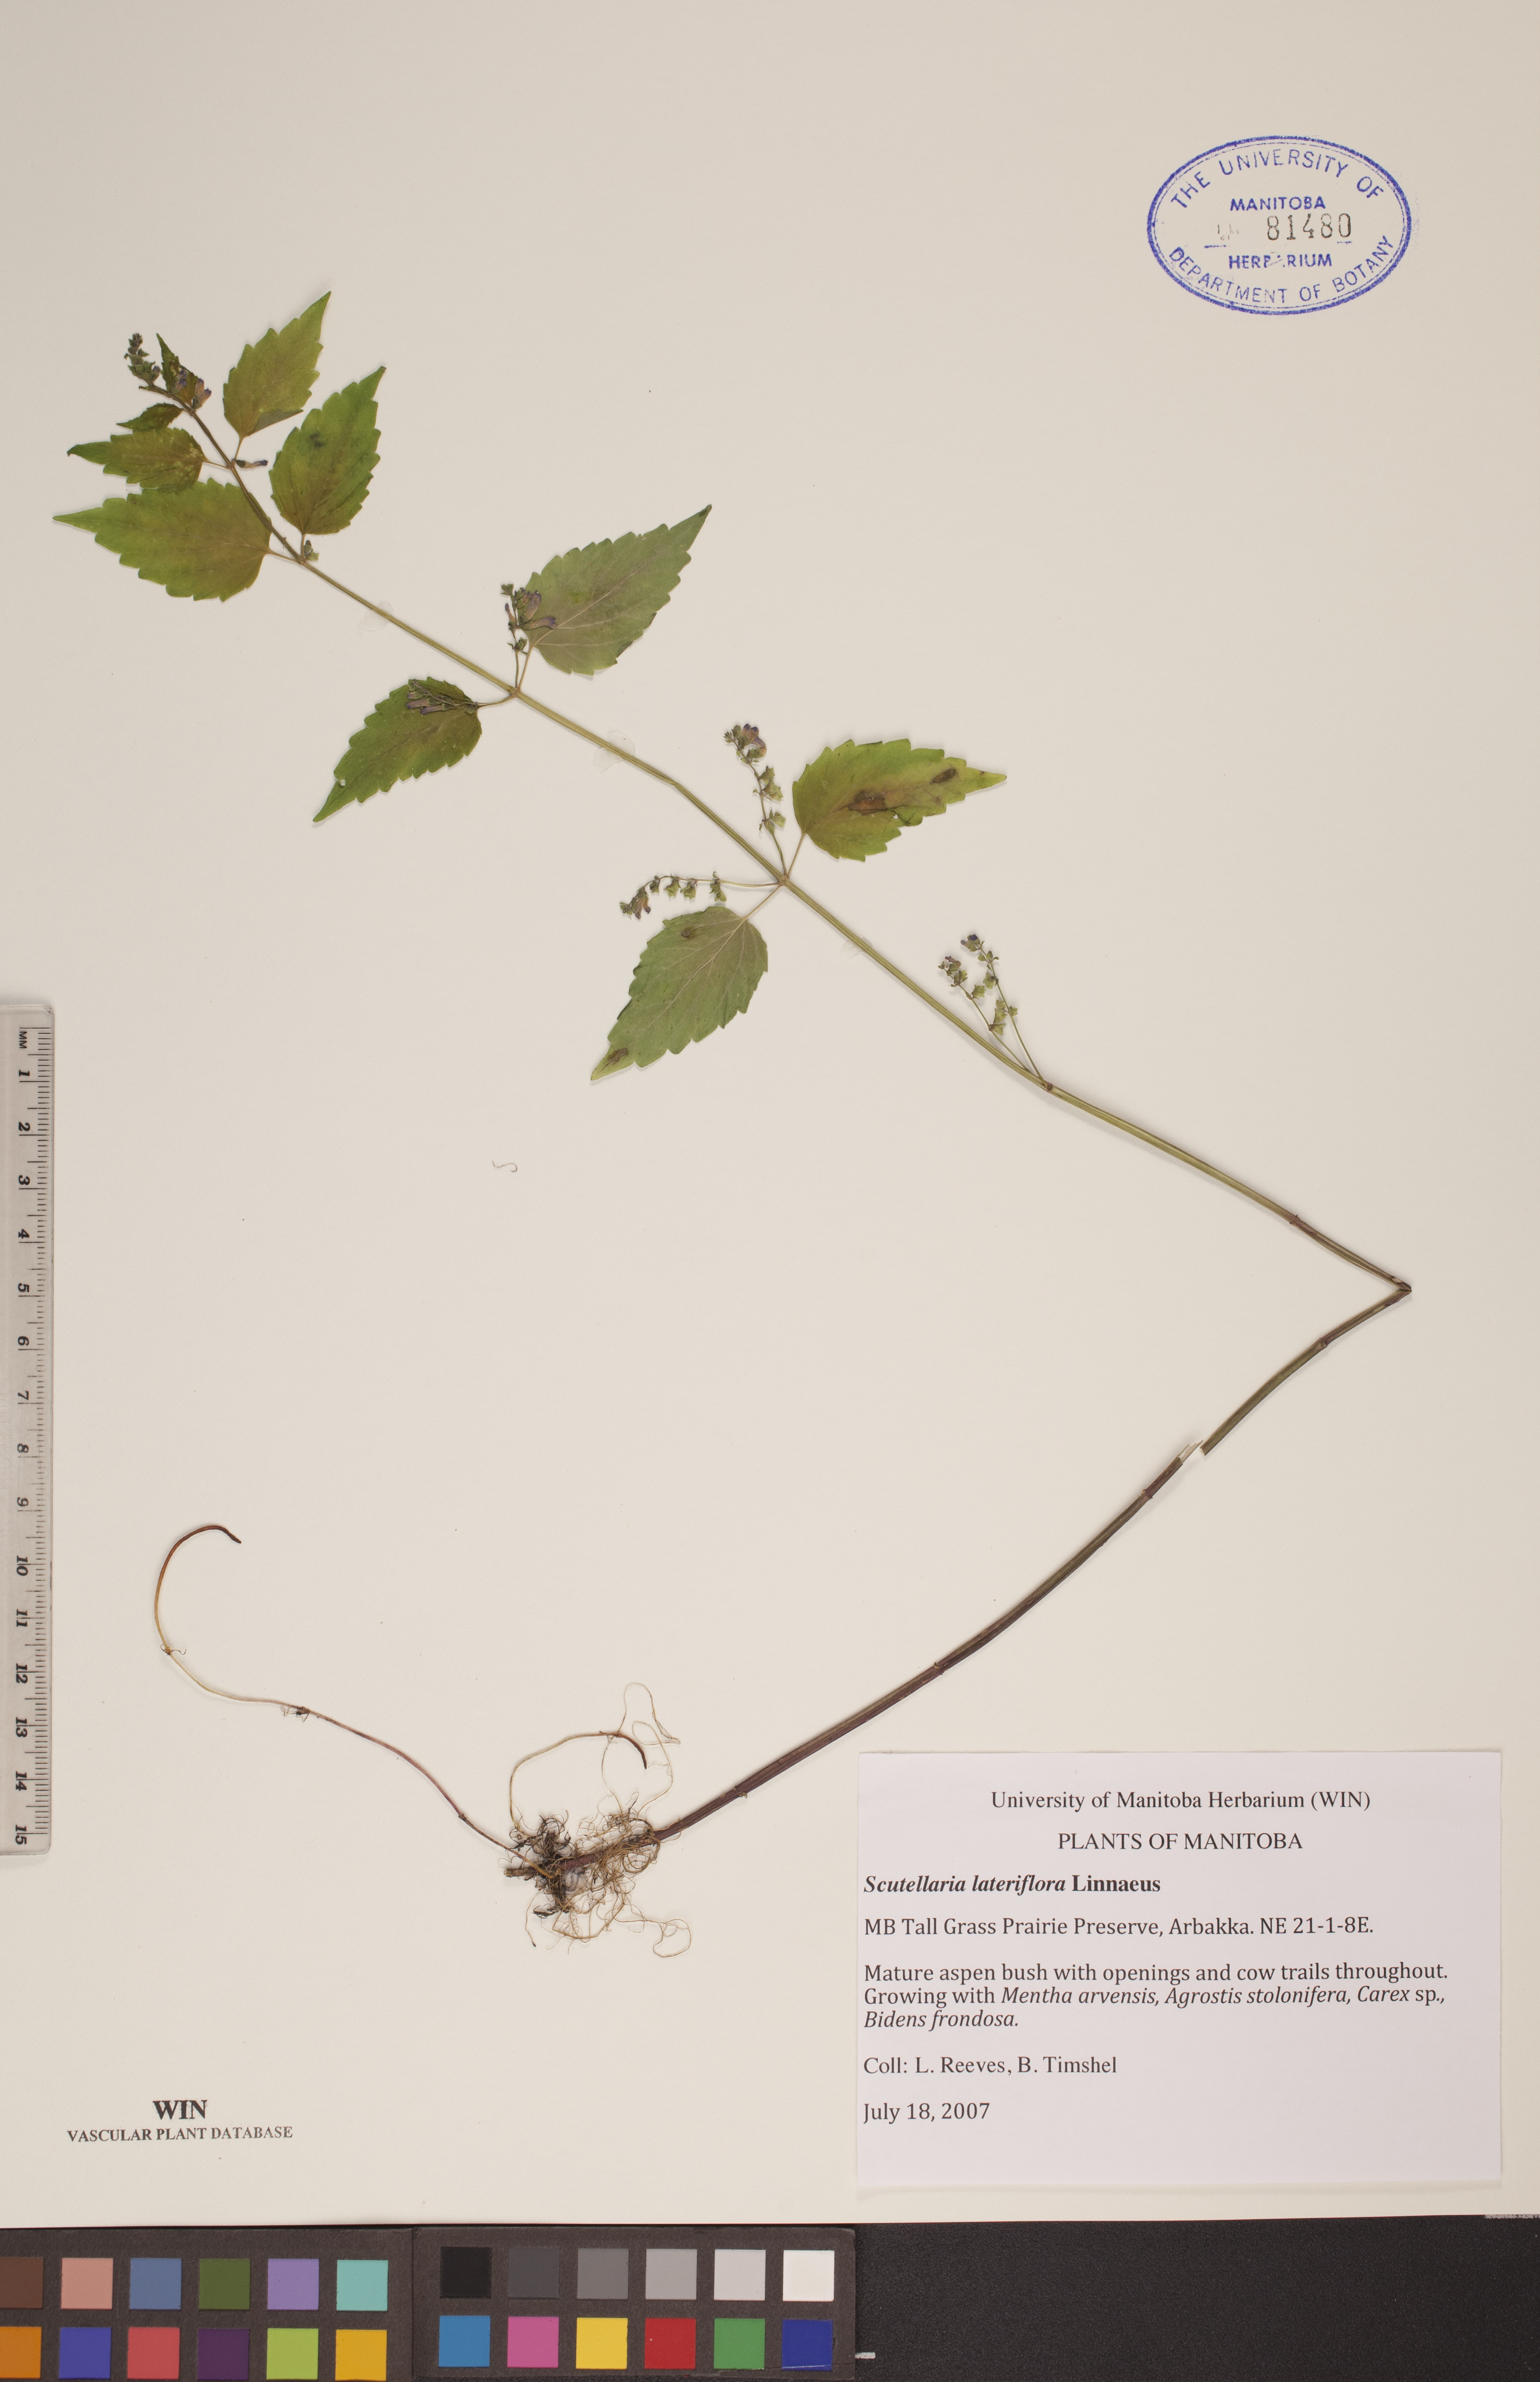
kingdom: Plantae
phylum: Tracheophyta
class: Magnoliopsida
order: Lamiales
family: Lamiaceae
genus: Scutellaria
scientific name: Scutellaria lateriflora
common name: Blue skullcap
